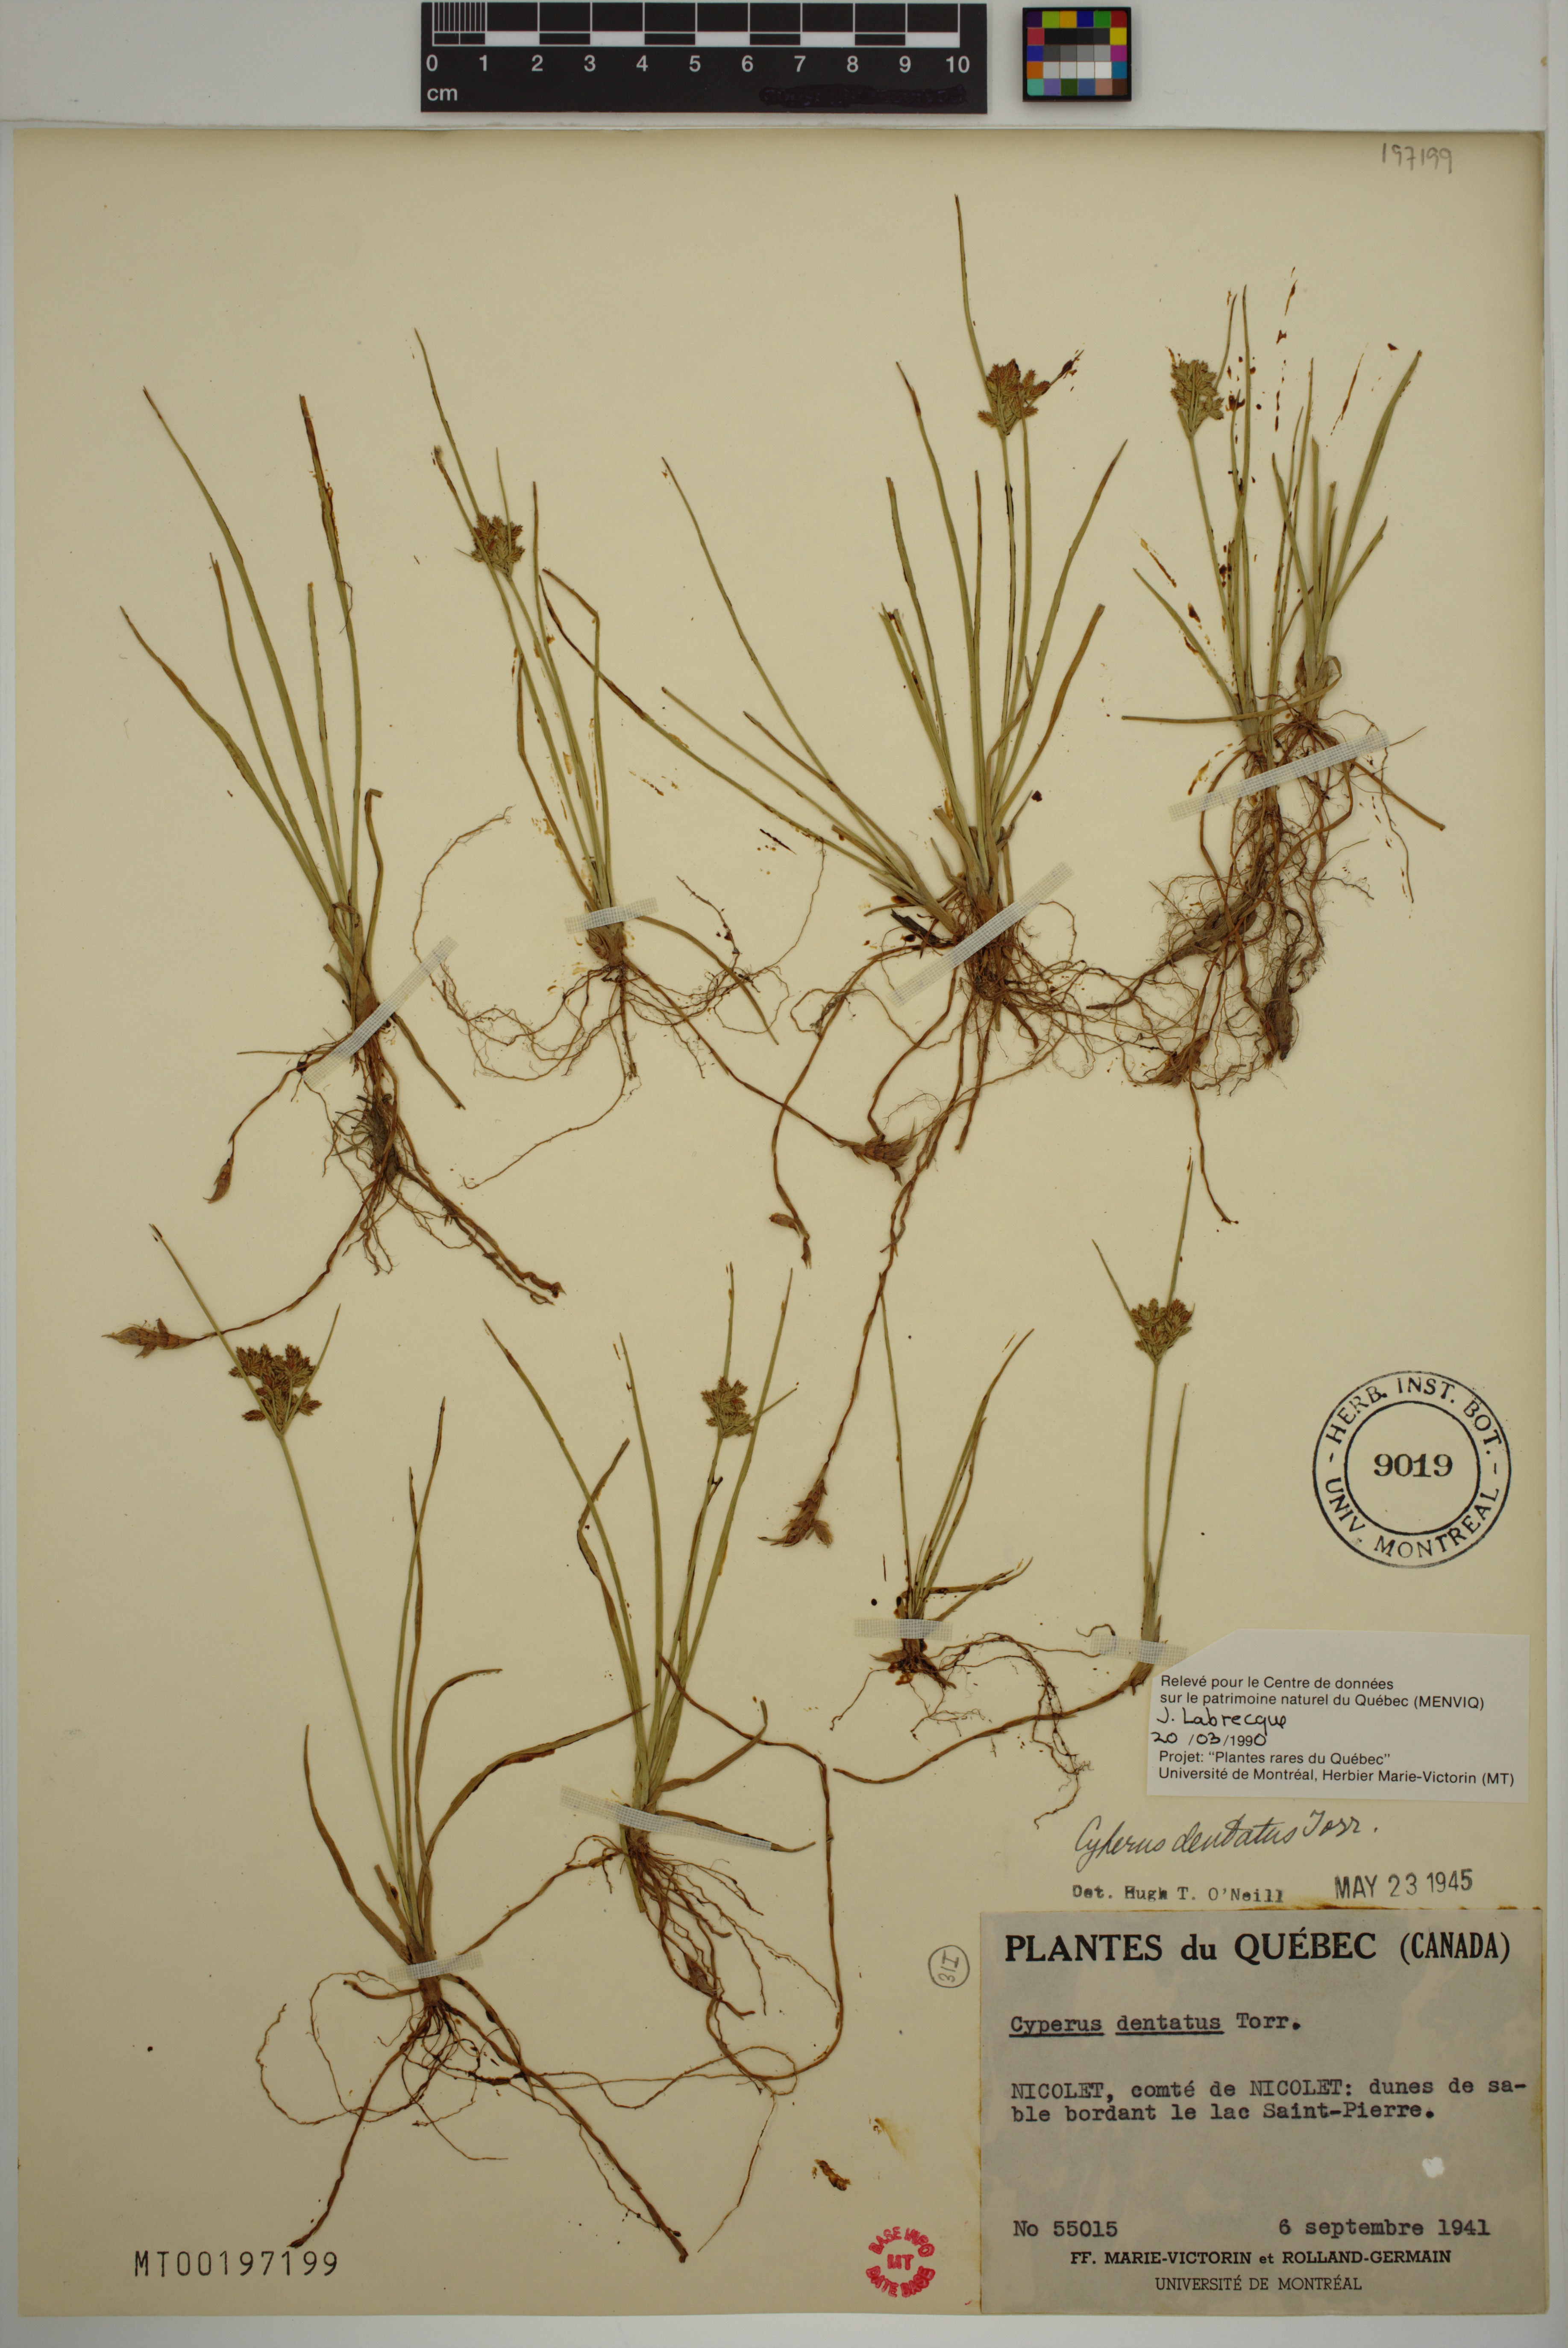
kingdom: Plantae
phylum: Tracheophyta
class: Liliopsida
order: Poales
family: Cyperaceae
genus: Cyperus
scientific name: Cyperus dentatus
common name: Dentate umbrella sedge
